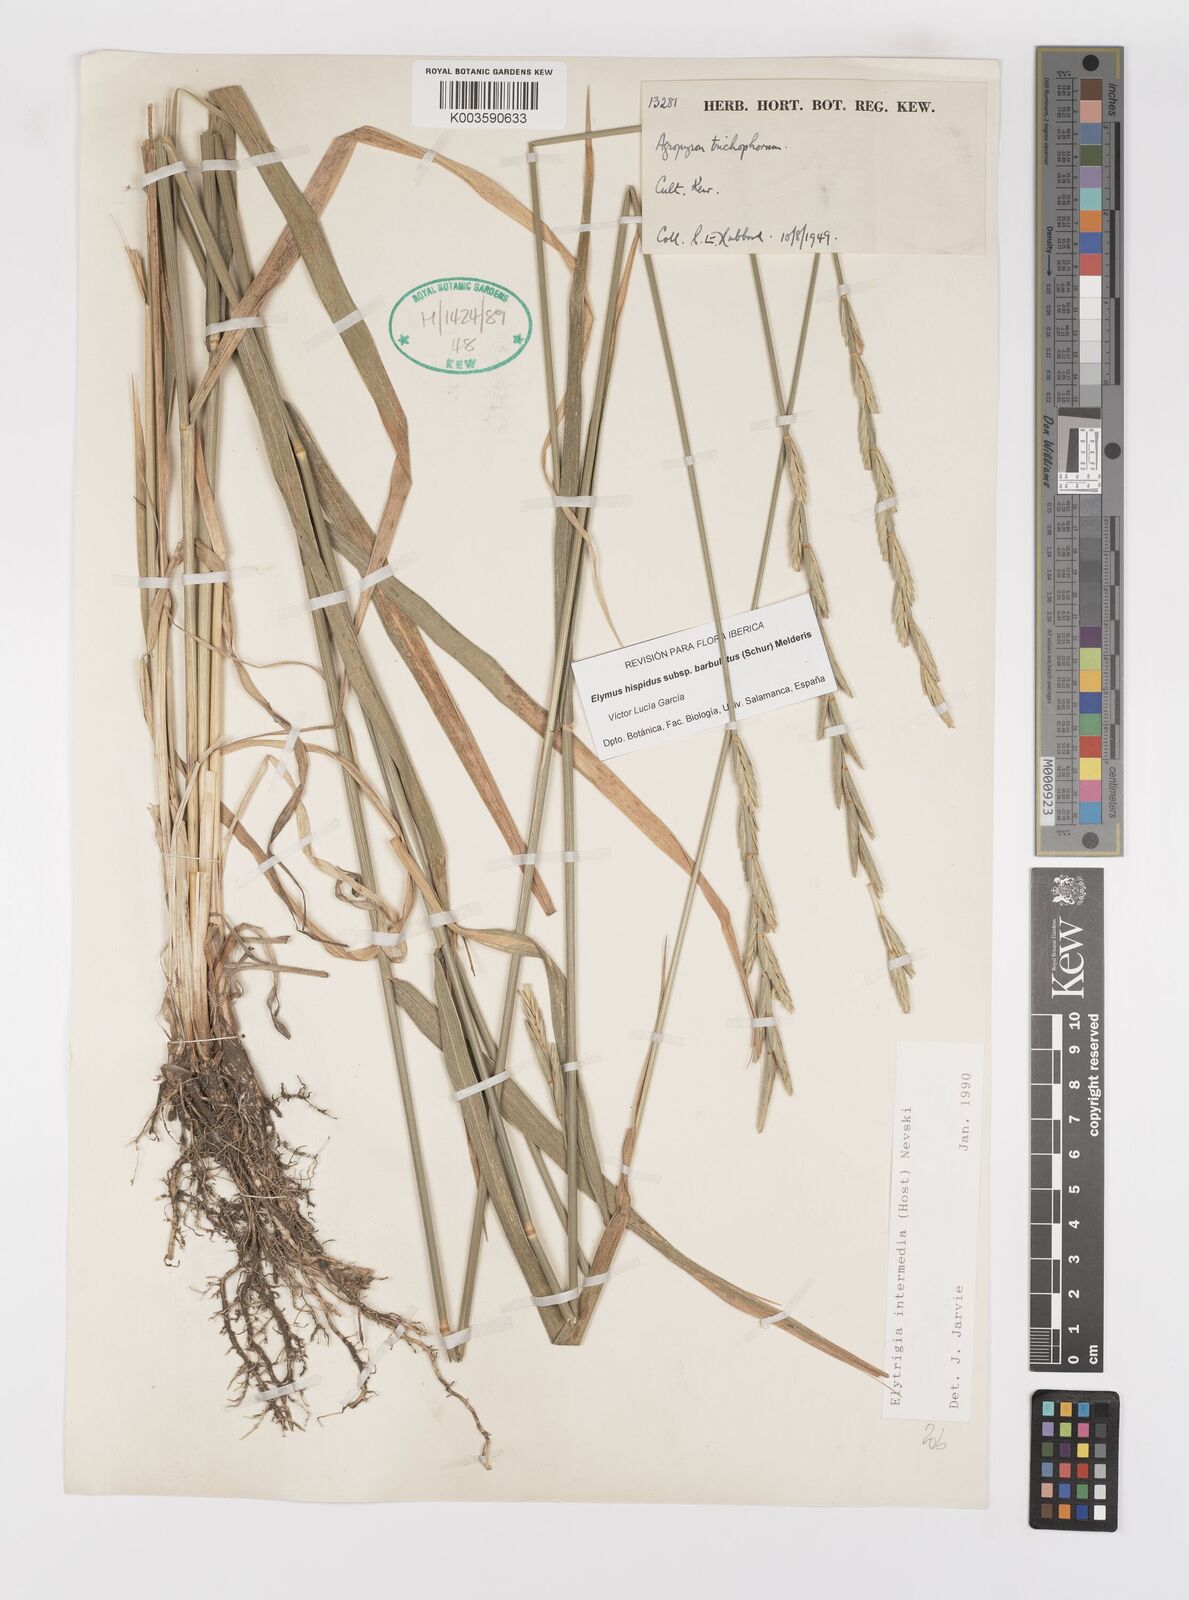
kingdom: Plantae
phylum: Tracheophyta
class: Liliopsida
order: Poales
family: Poaceae
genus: Thinopyrum
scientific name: Thinopyrum intermedium
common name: Intermediate wheatgrass
